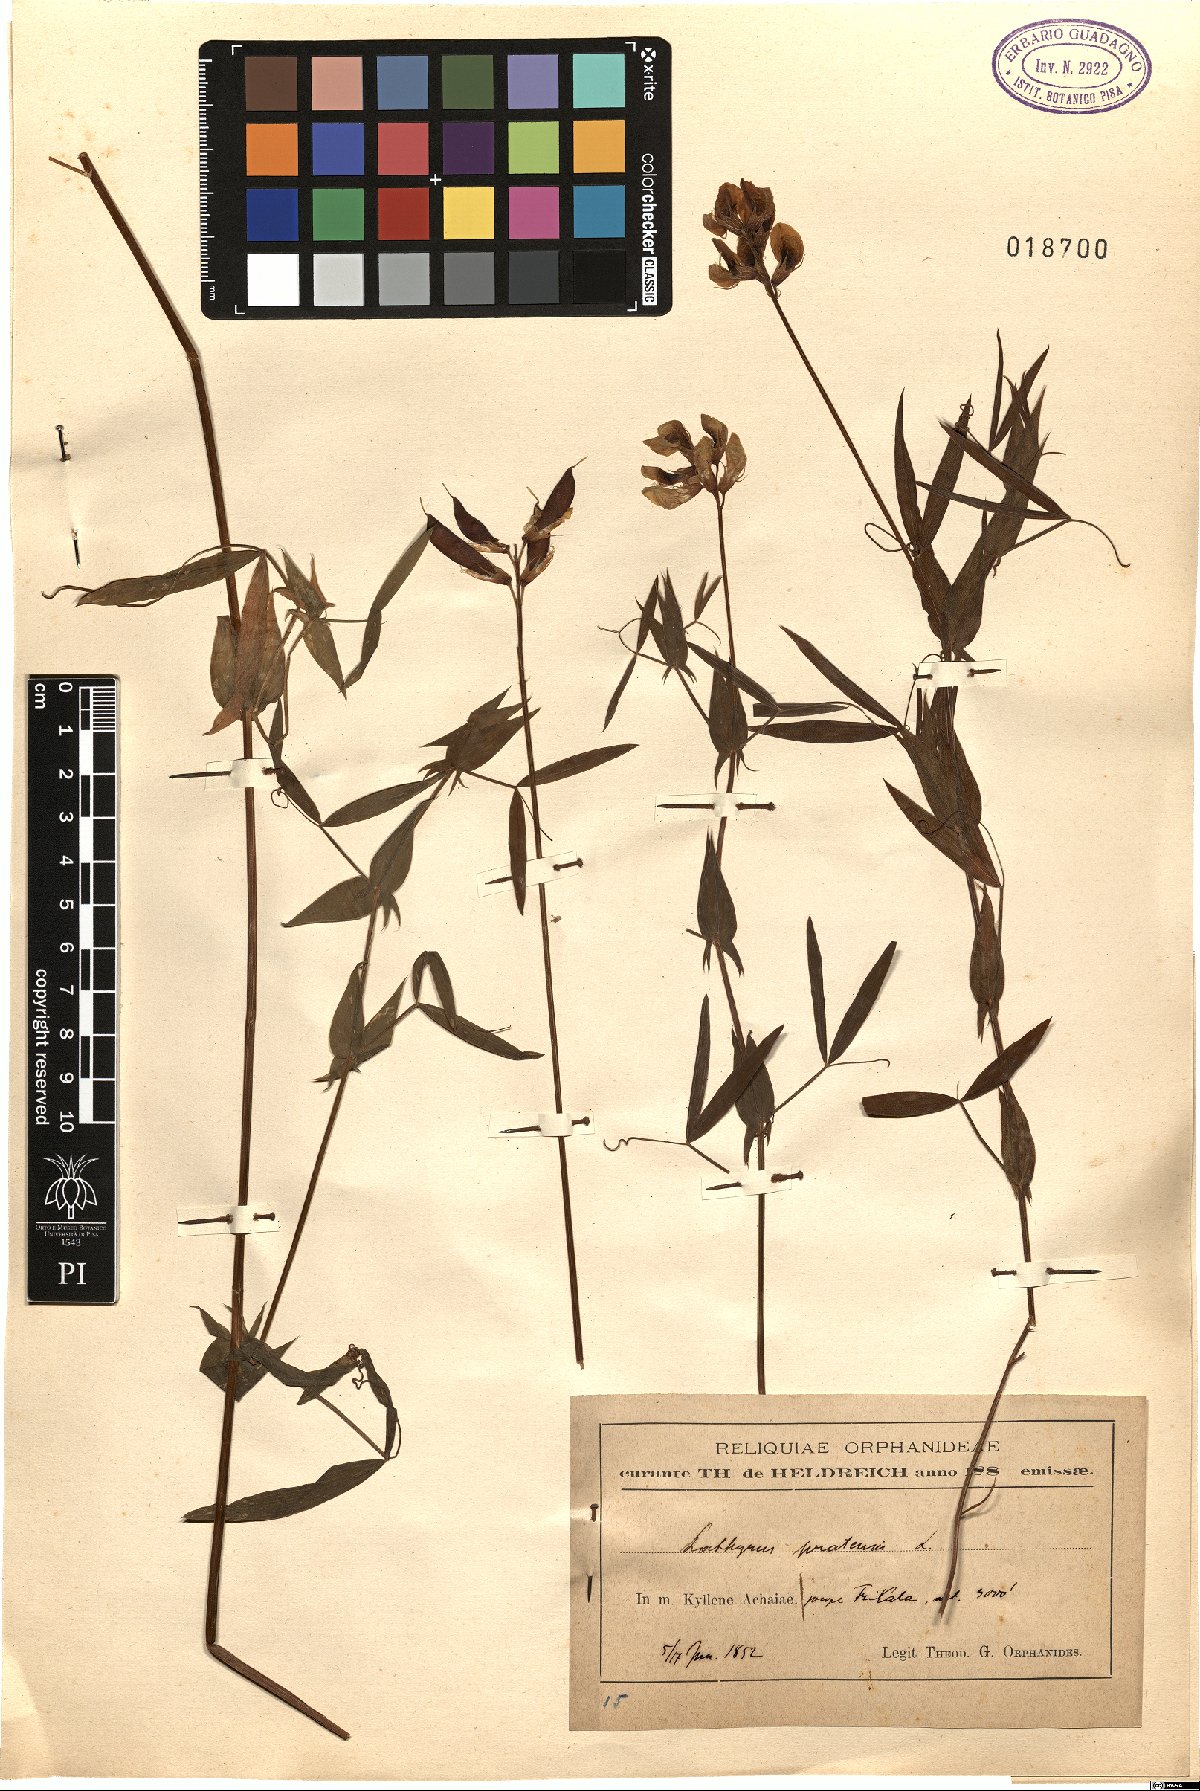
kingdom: Plantae
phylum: Tracheophyta
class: Magnoliopsida
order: Fabales
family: Fabaceae
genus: Lathyrus
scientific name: Lathyrus pratensis
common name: Meadow vetchling
